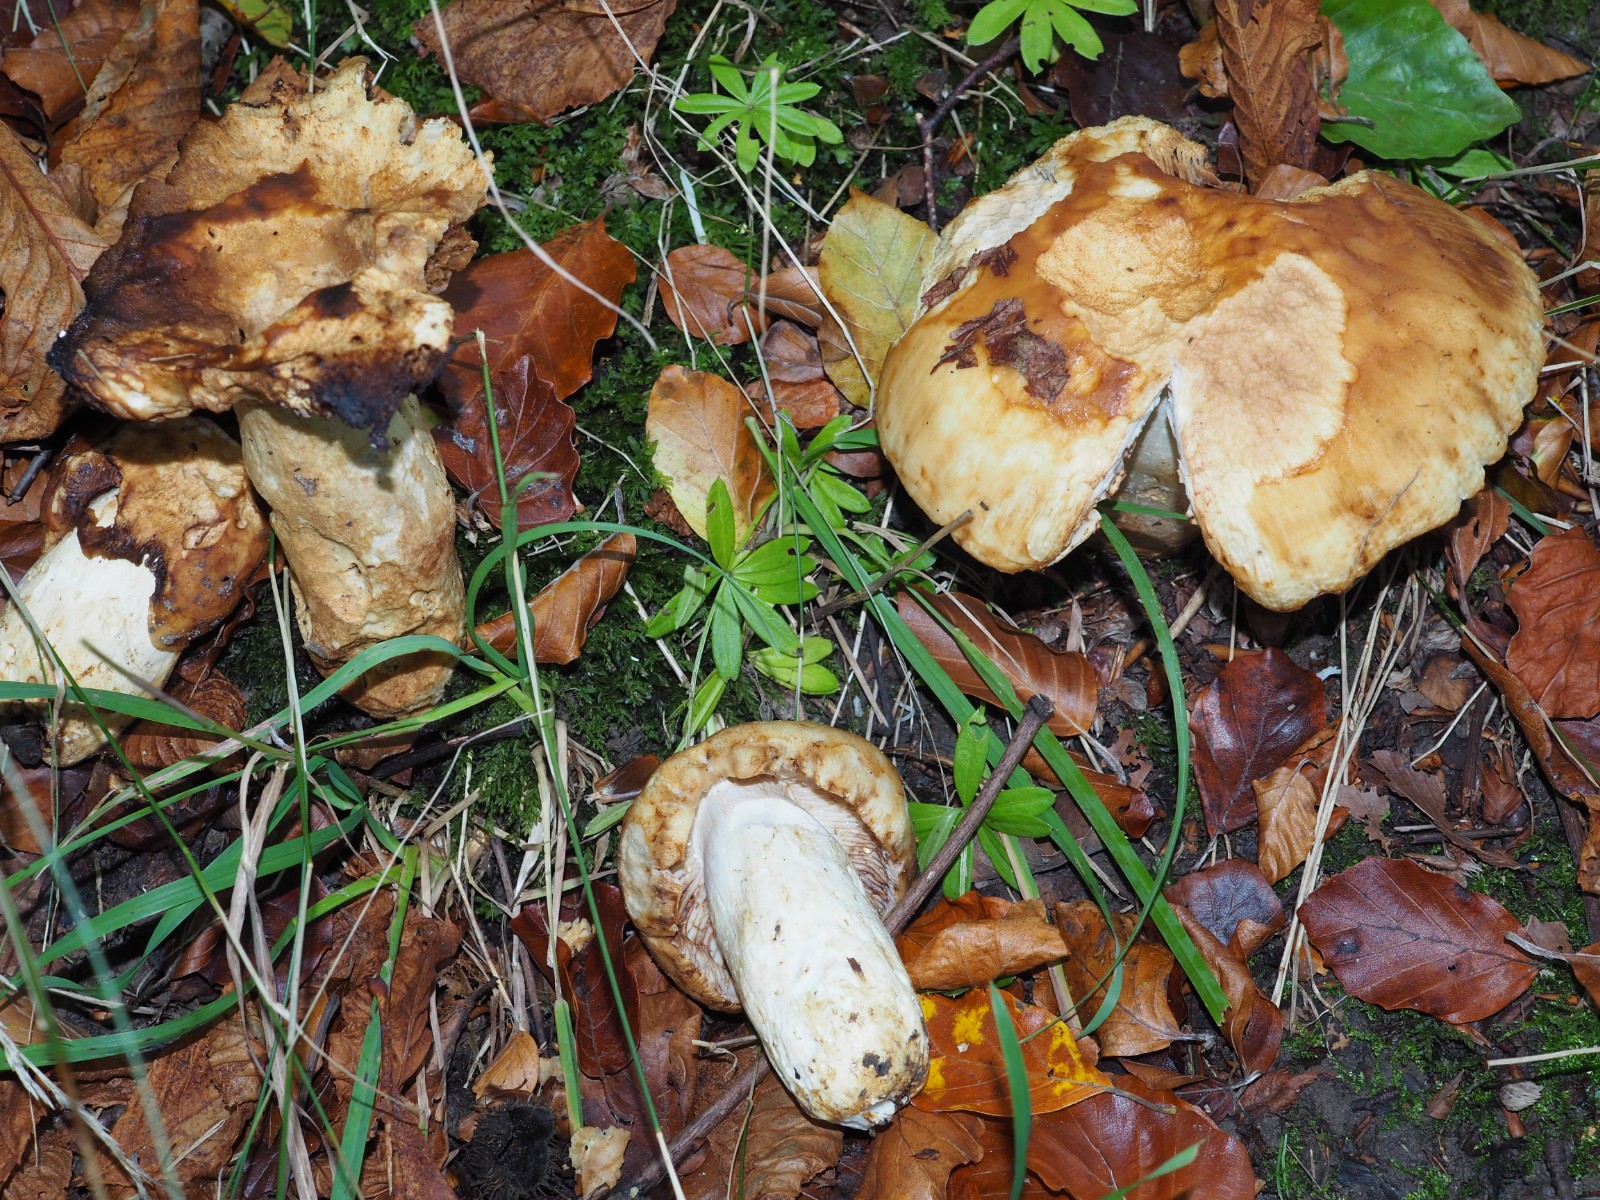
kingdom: Fungi
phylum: Basidiomycota
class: Agaricomycetes
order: Russulales
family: Russulaceae
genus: Russula
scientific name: Russula foetens
